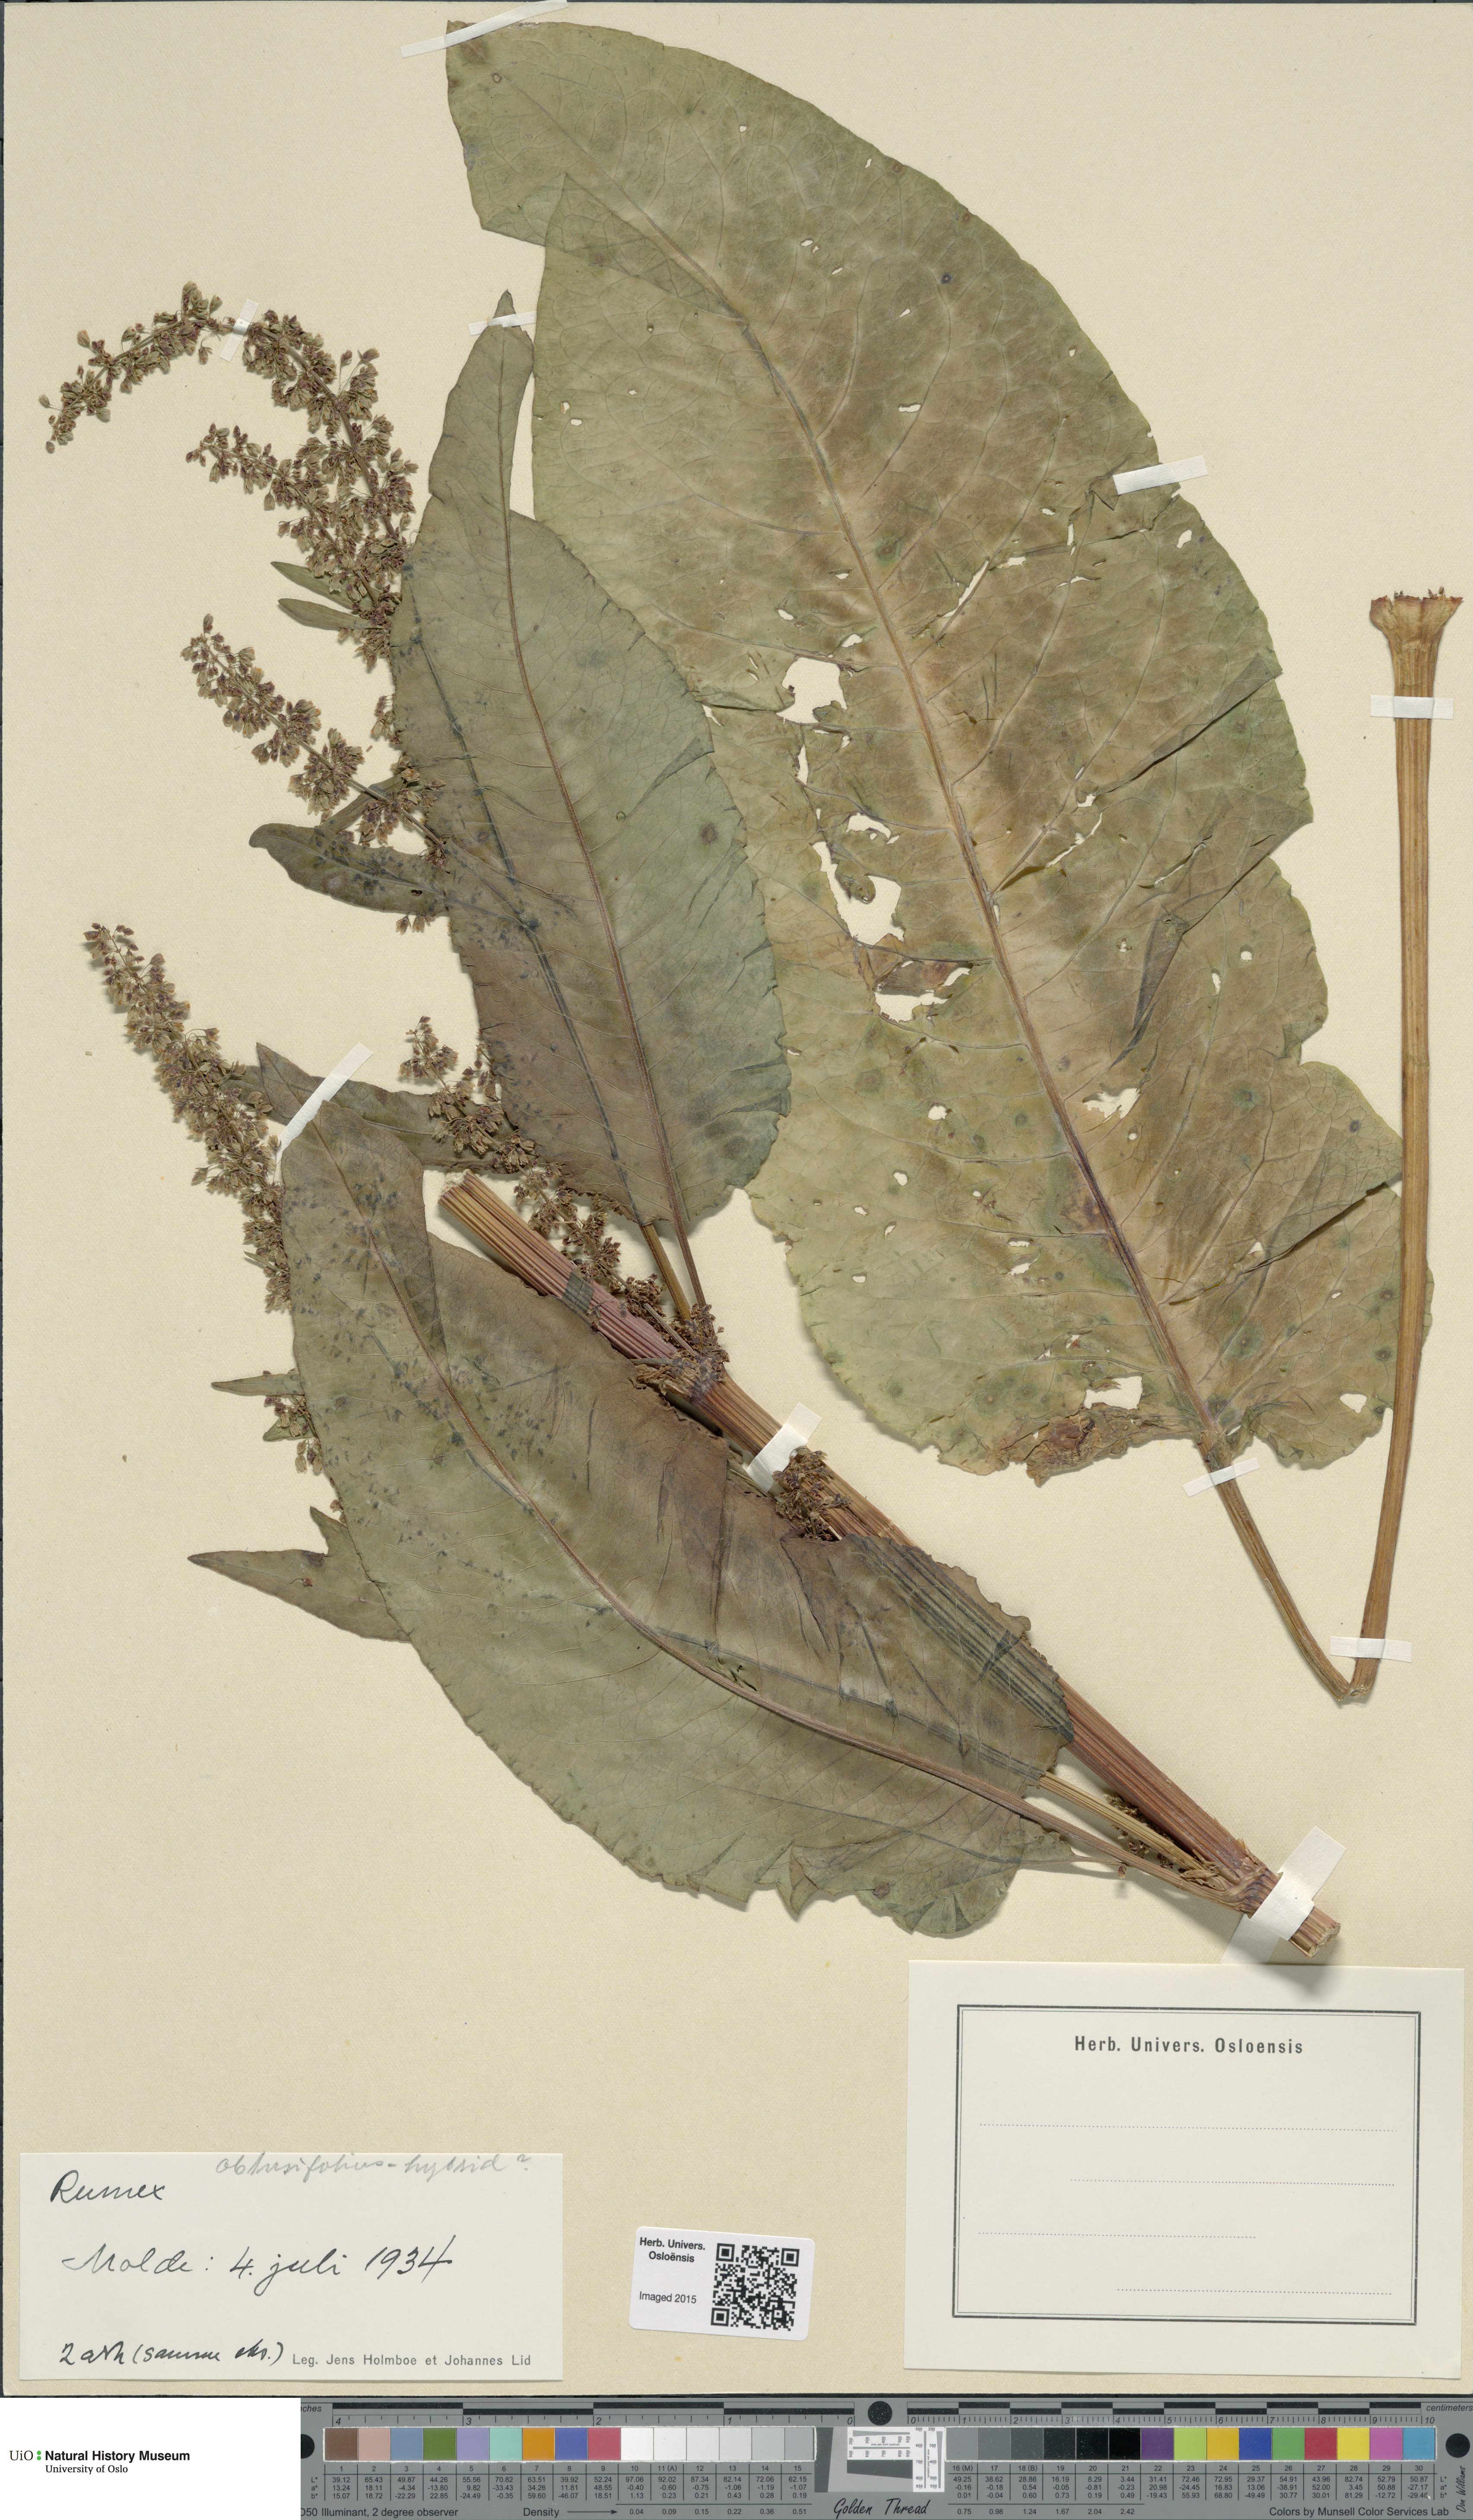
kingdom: Plantae
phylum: Tracheophyta
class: Magnoliopsida
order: Caryophyllales
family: Polygonaceae
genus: Rumex
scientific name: Rumex
